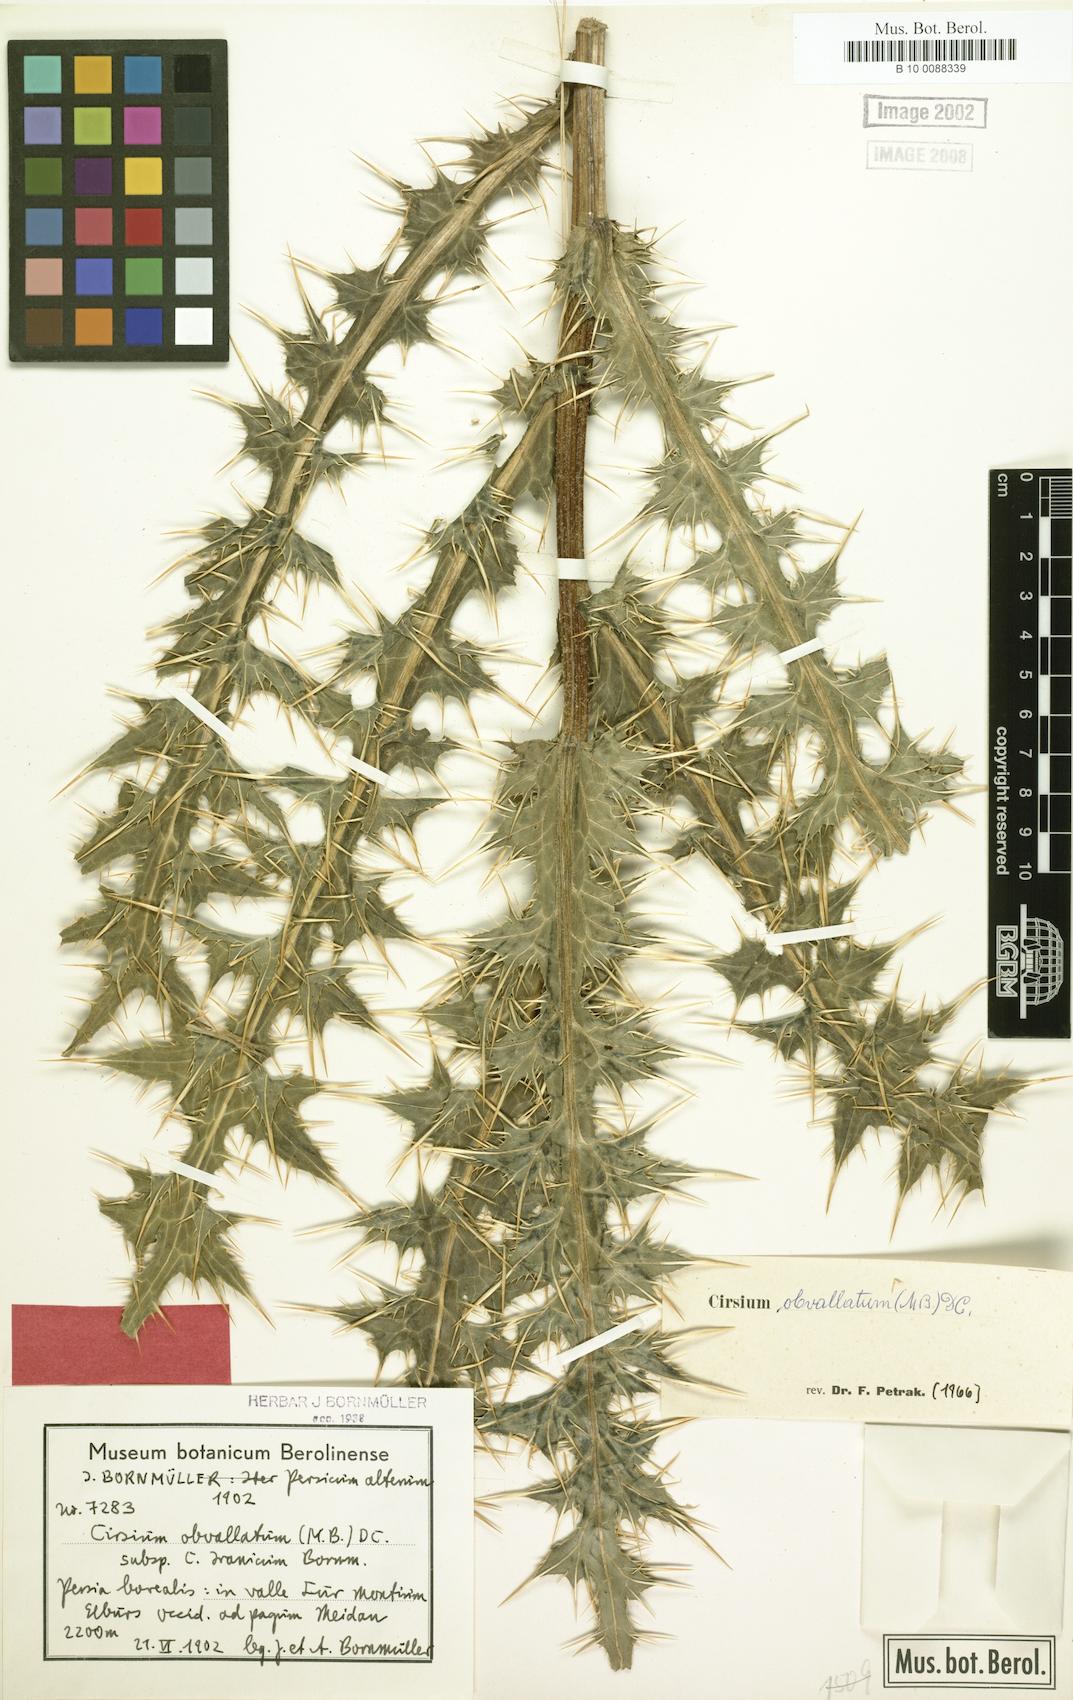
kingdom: Plantae
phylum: Tracheophyta
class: Magnoliopsida
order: Asterales
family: Asteraceae
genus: Cirsium
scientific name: Cirsium obvallatum
